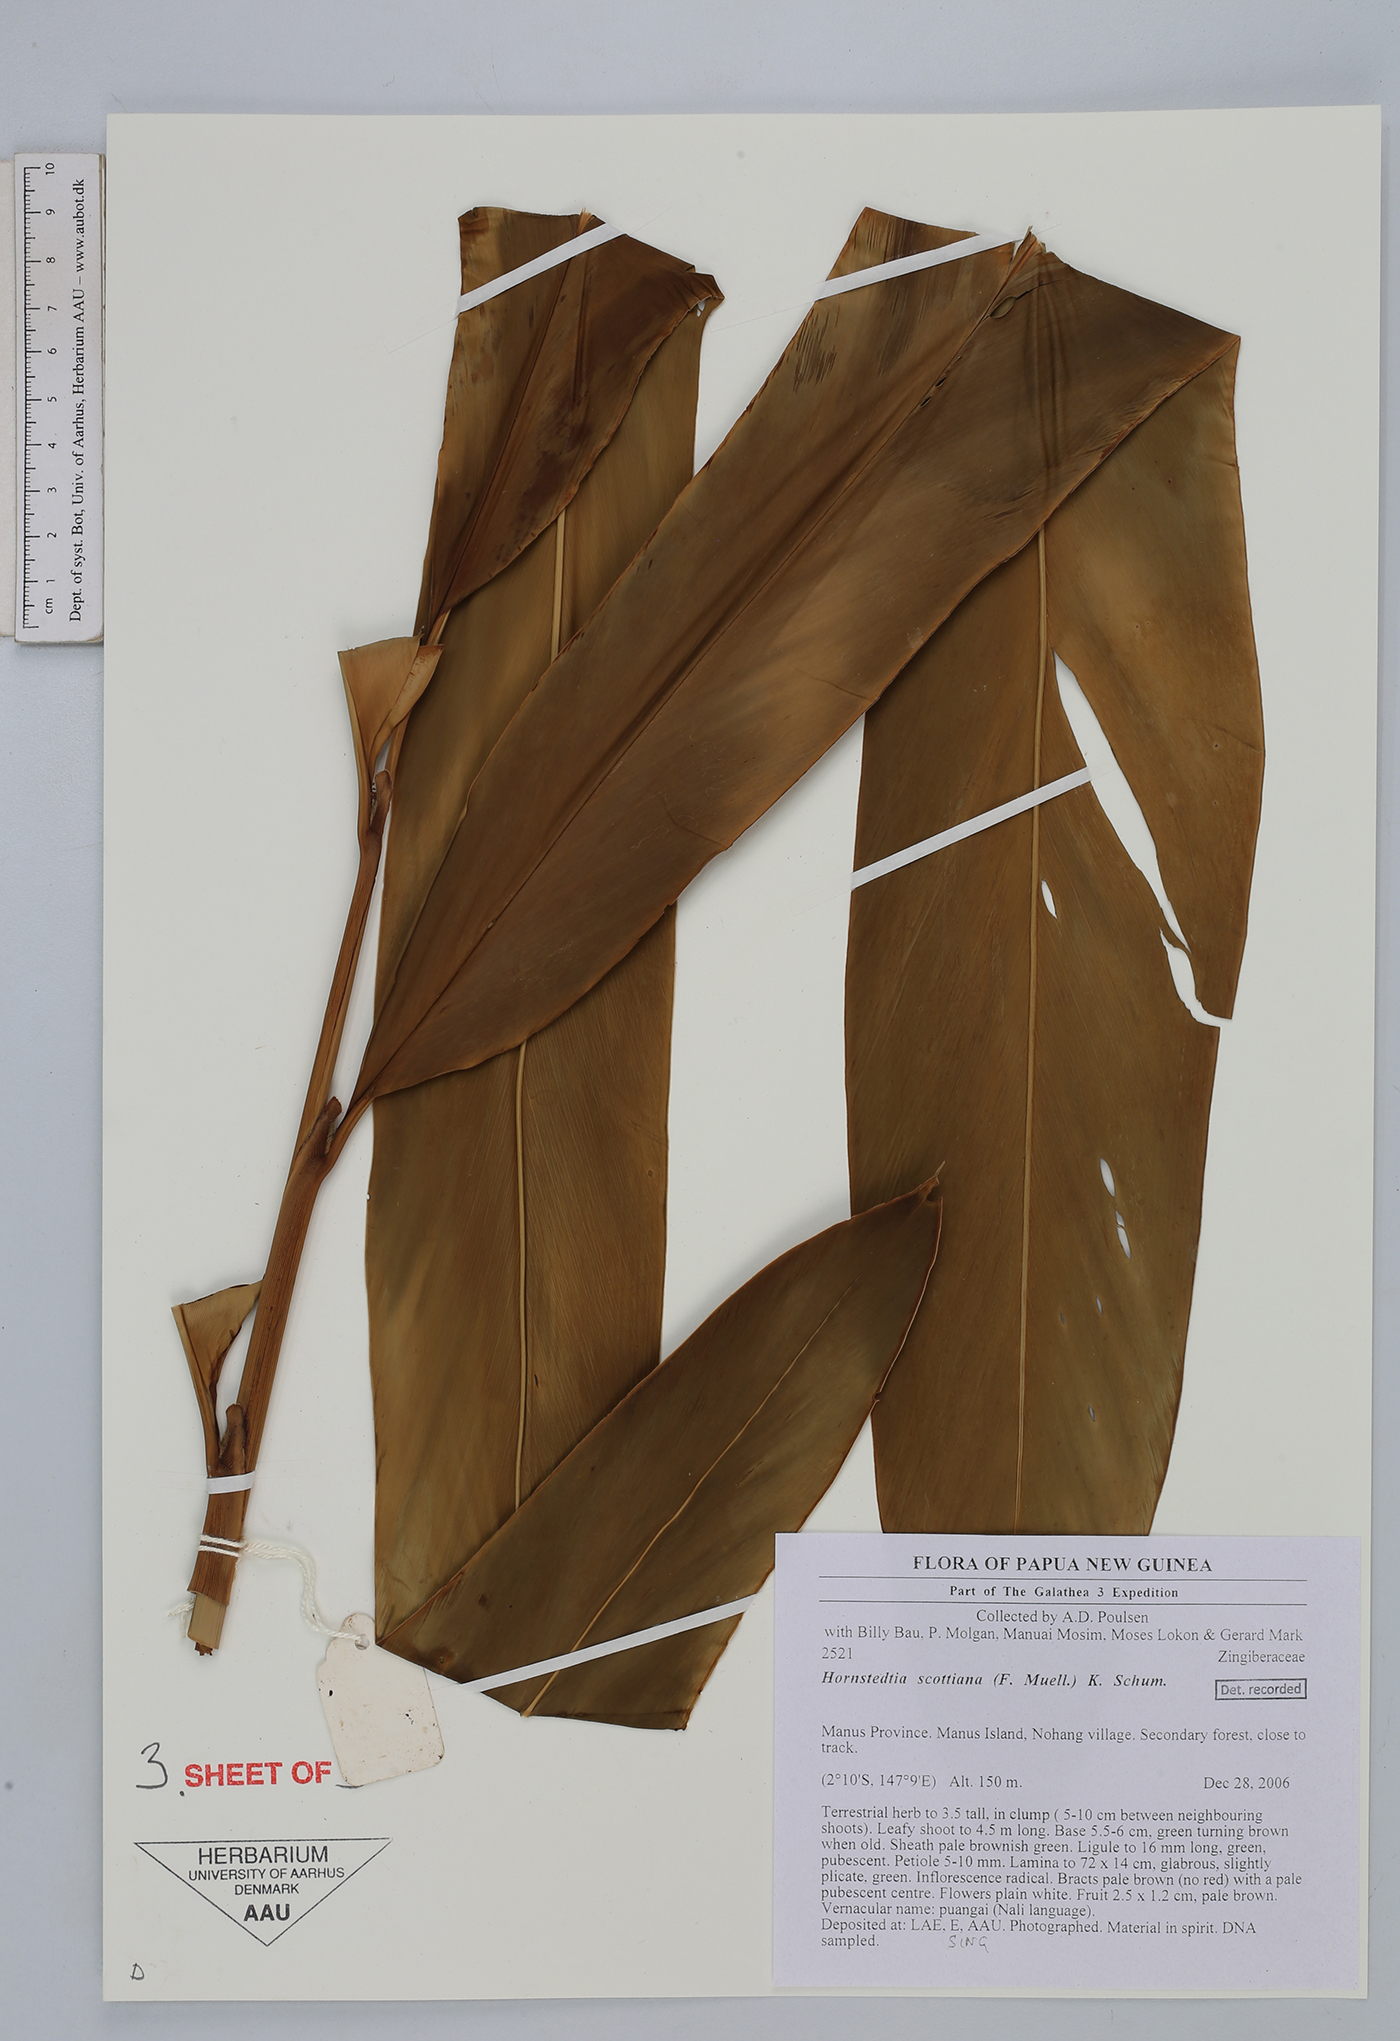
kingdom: Plantae
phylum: Tracheophyta
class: Liliopsida
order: Zingiberales
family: Zingiberaceae
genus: Hornstedtia
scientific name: Hornstedtia scottiana
